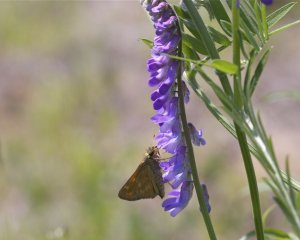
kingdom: Animalia
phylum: Arthropoda
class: Insecta
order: Lepidoptera
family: Hesperiidae
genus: Hesperia
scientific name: Hesperia sassacus
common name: Sassacus Skipper
